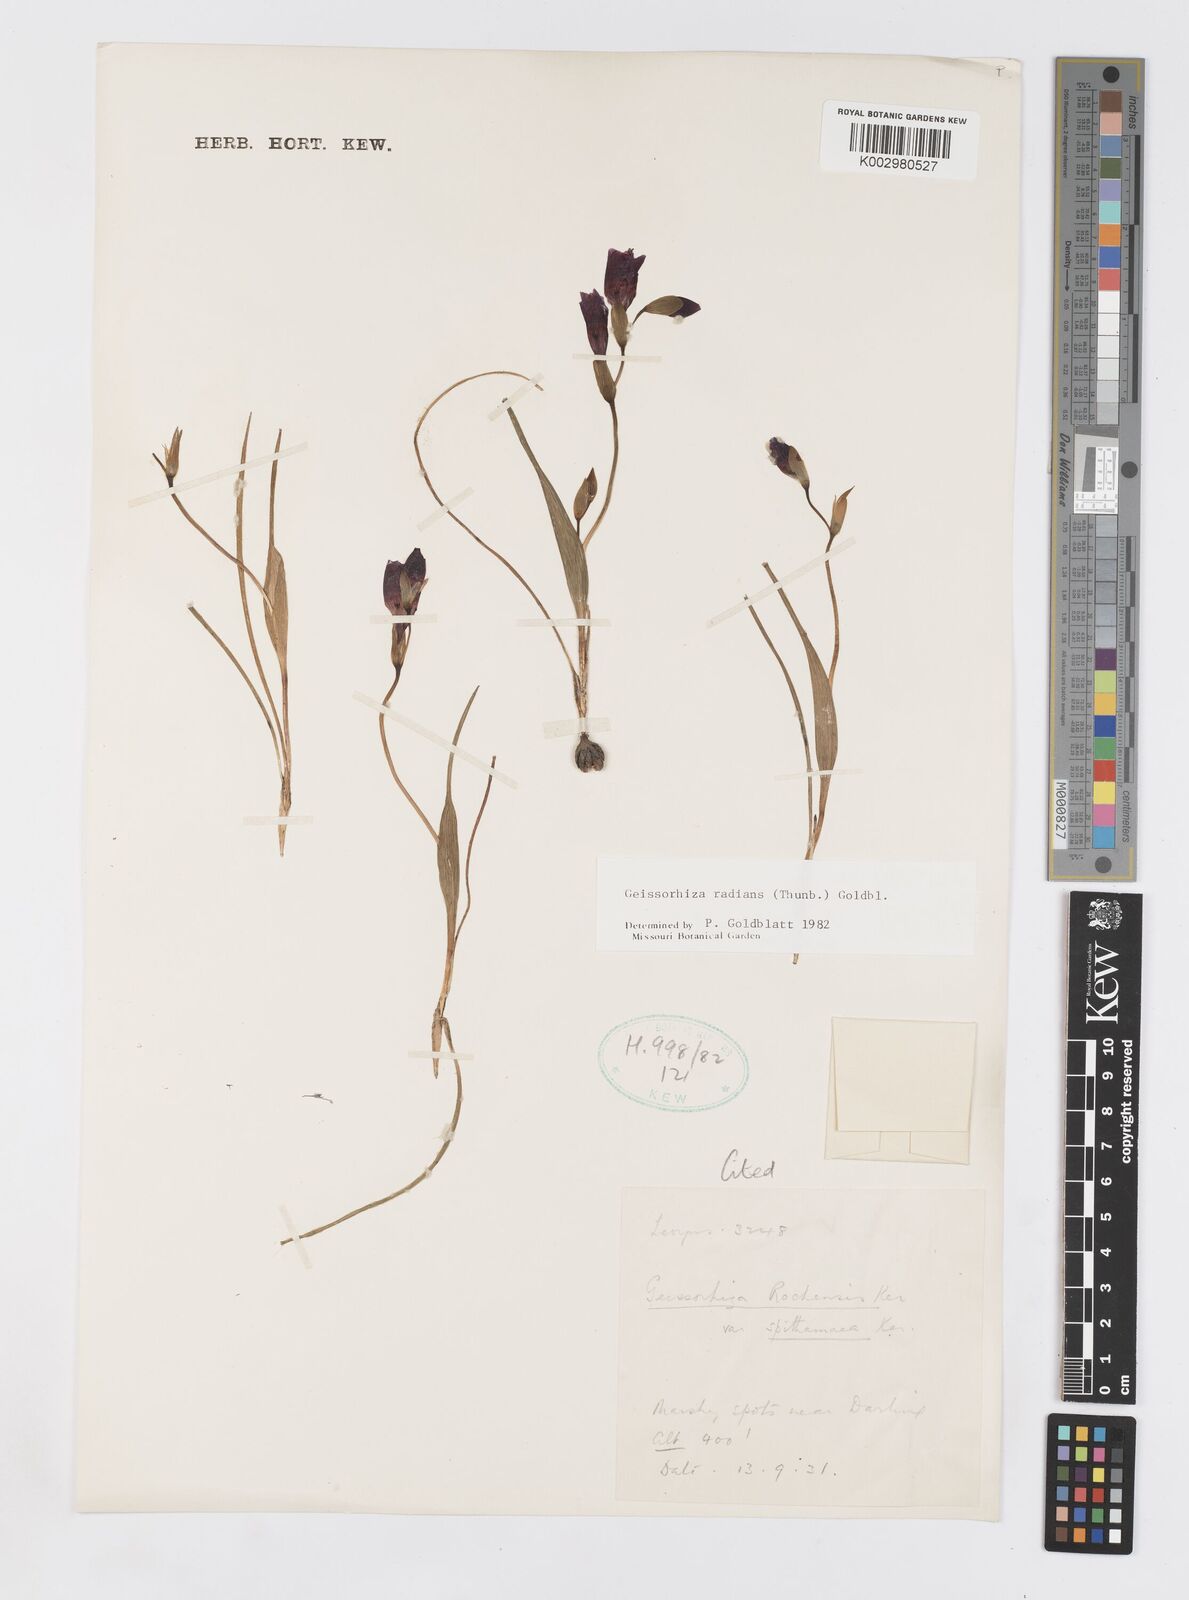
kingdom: Plantae
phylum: Tracheophyta
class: Liliopsida
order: Asparagales
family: Iridaceae
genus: Geissorhiza
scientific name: Geissorhiza radians
